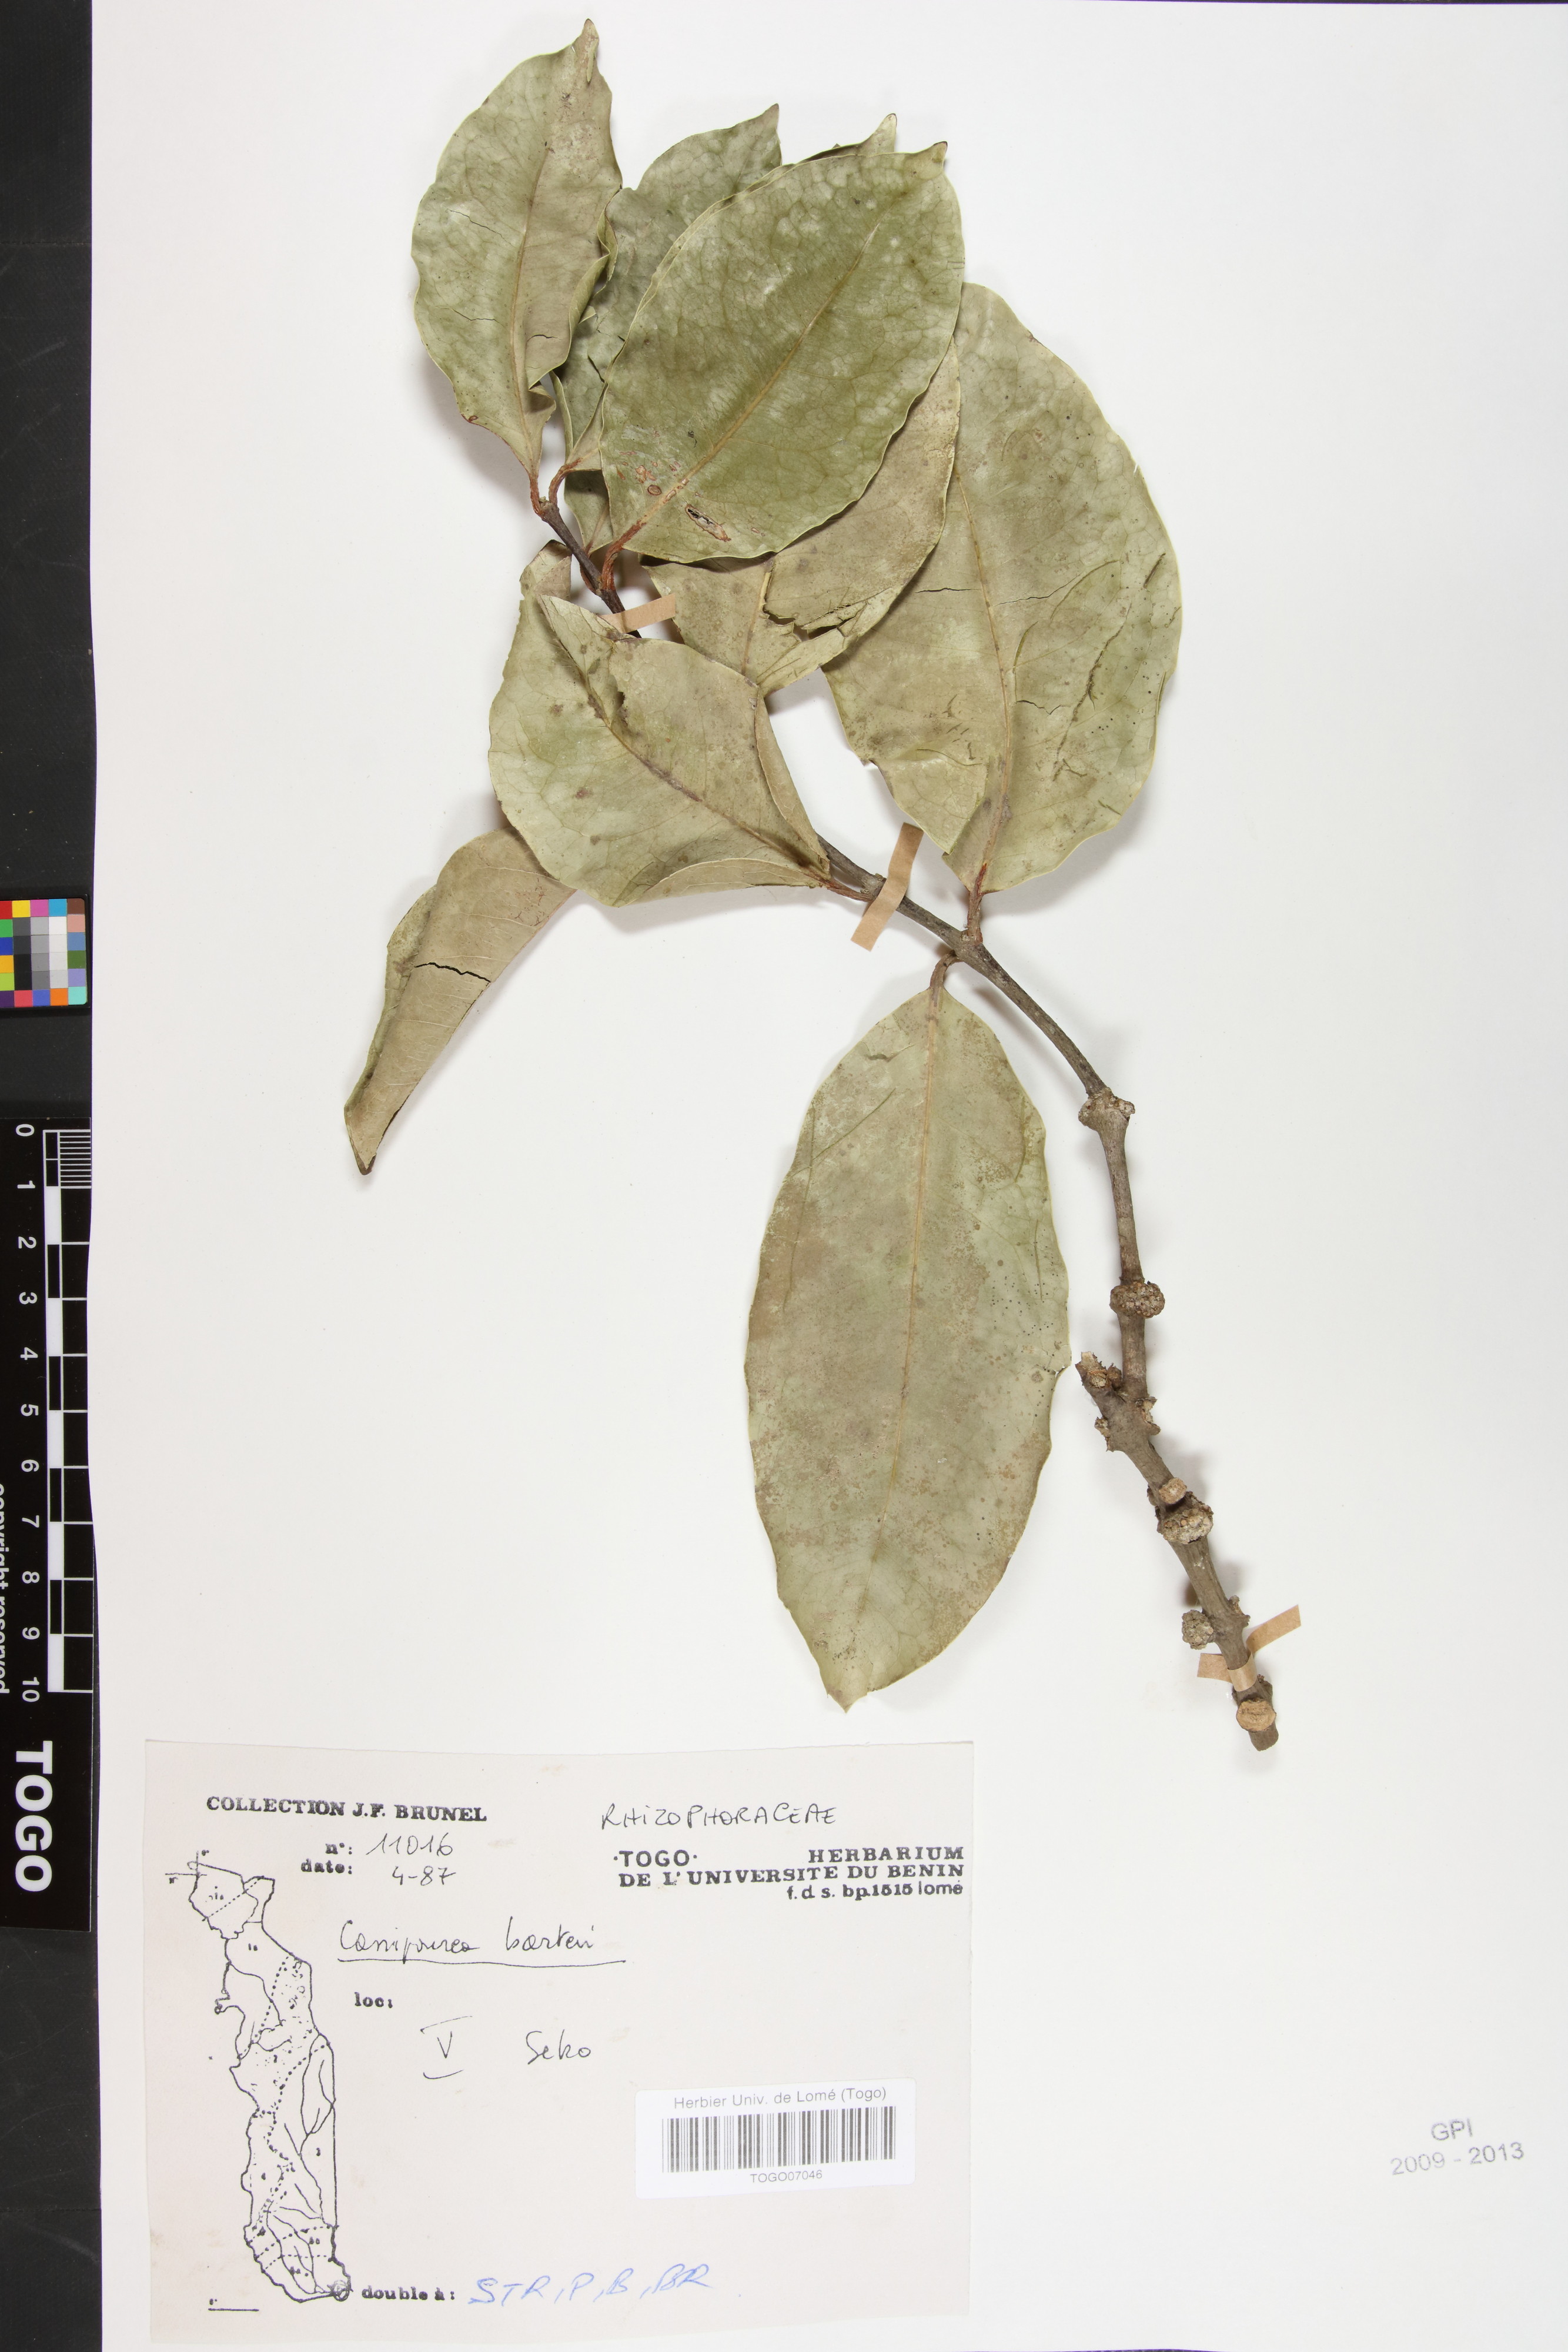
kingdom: Plantae
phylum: Tracheophyta
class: Magnoliopsida
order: Malpighiales
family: Rhizophoraceae
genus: Cassipourea
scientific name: Cassipourea barteri
